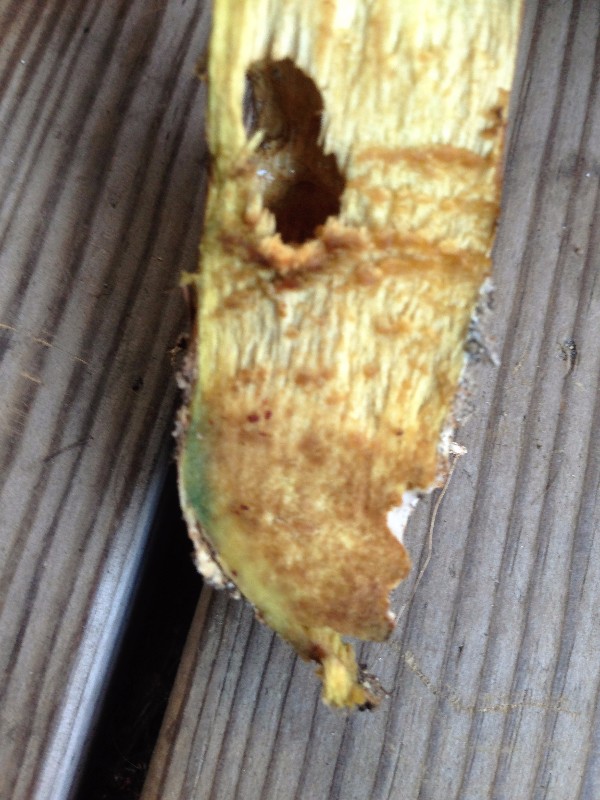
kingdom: Fungi
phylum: Basidiomycota
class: Agaricomycetes
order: Boletales
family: Suillaceae
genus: Suillus
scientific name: Suillus grevillei
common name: lærke-slimrørhat
